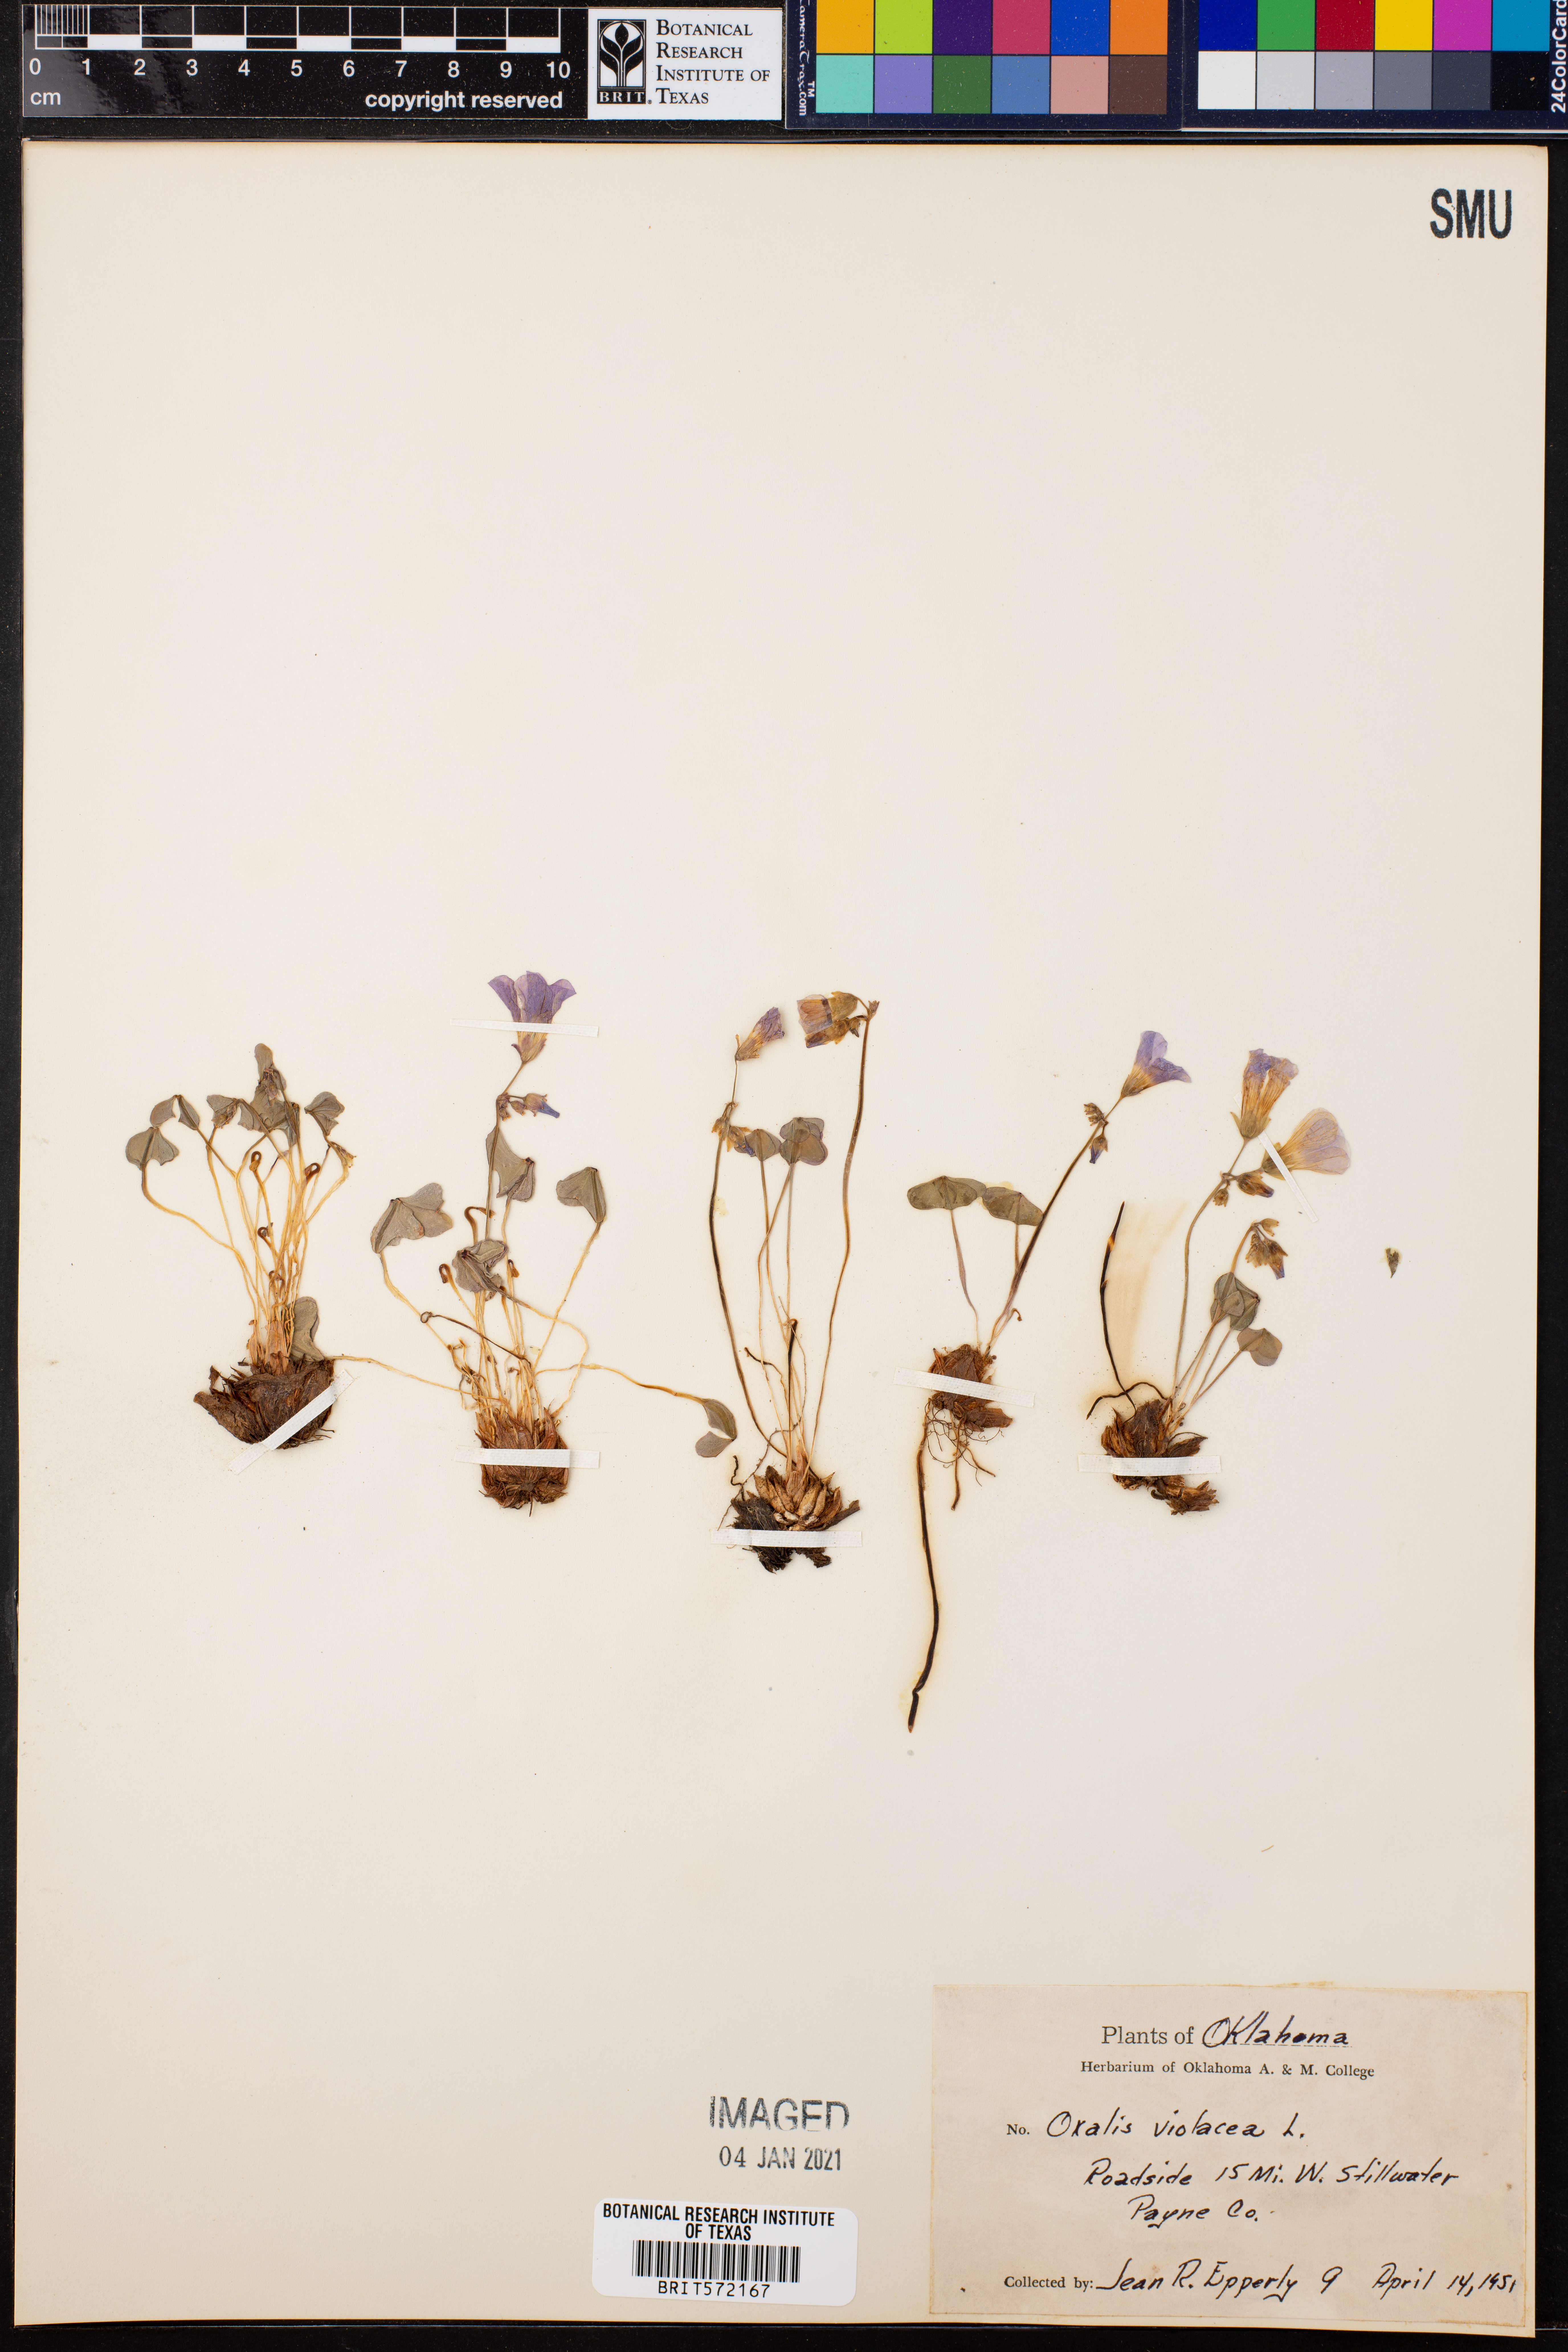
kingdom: Plantae
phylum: Tracheophyta
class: Magnoliopsida
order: Oxalidales
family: Oxalidaceae
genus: Oxalis
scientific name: Oxalis violacea
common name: Violet wood-sorrel
